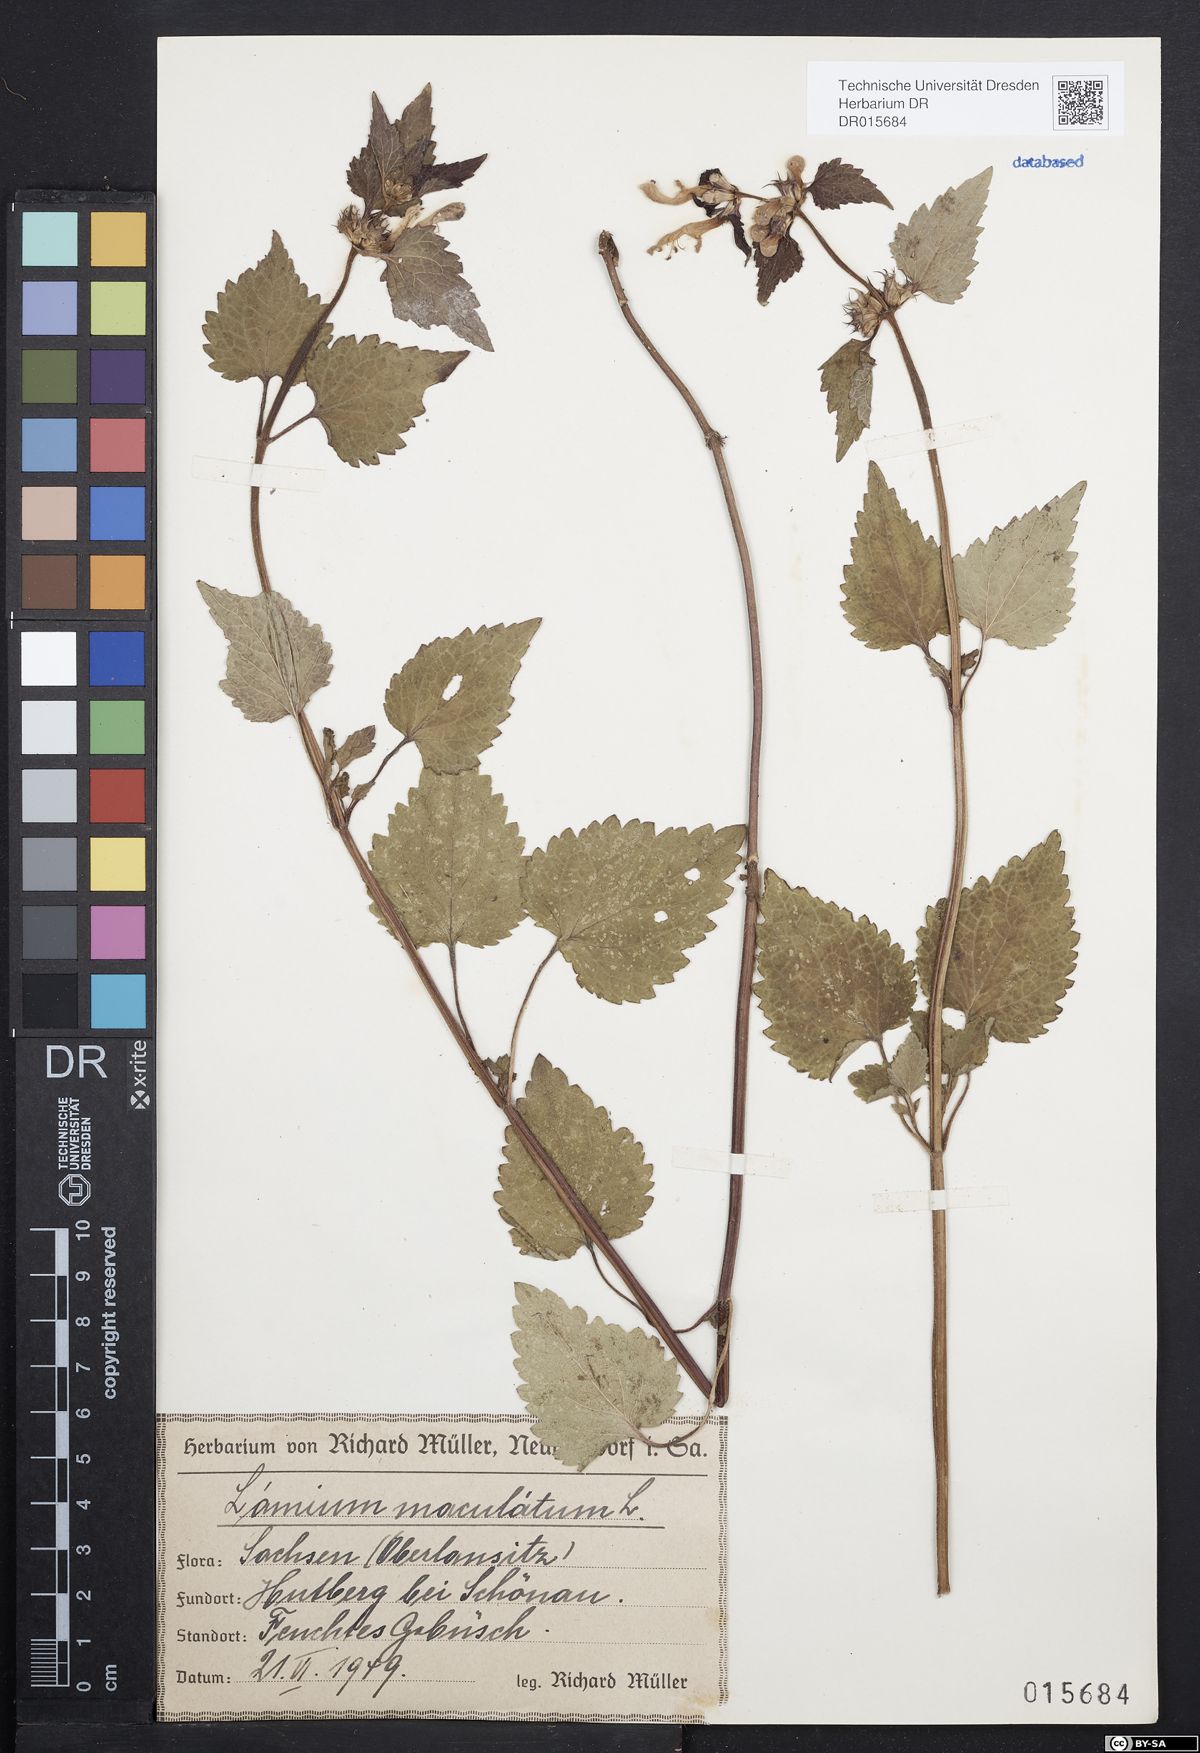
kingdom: Plantae
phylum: Tracheophyta
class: Magnoliopsida
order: Lamiales
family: Lamiaceae
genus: Lamium
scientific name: Lamium maculatum
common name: Spotted dead-nettle
